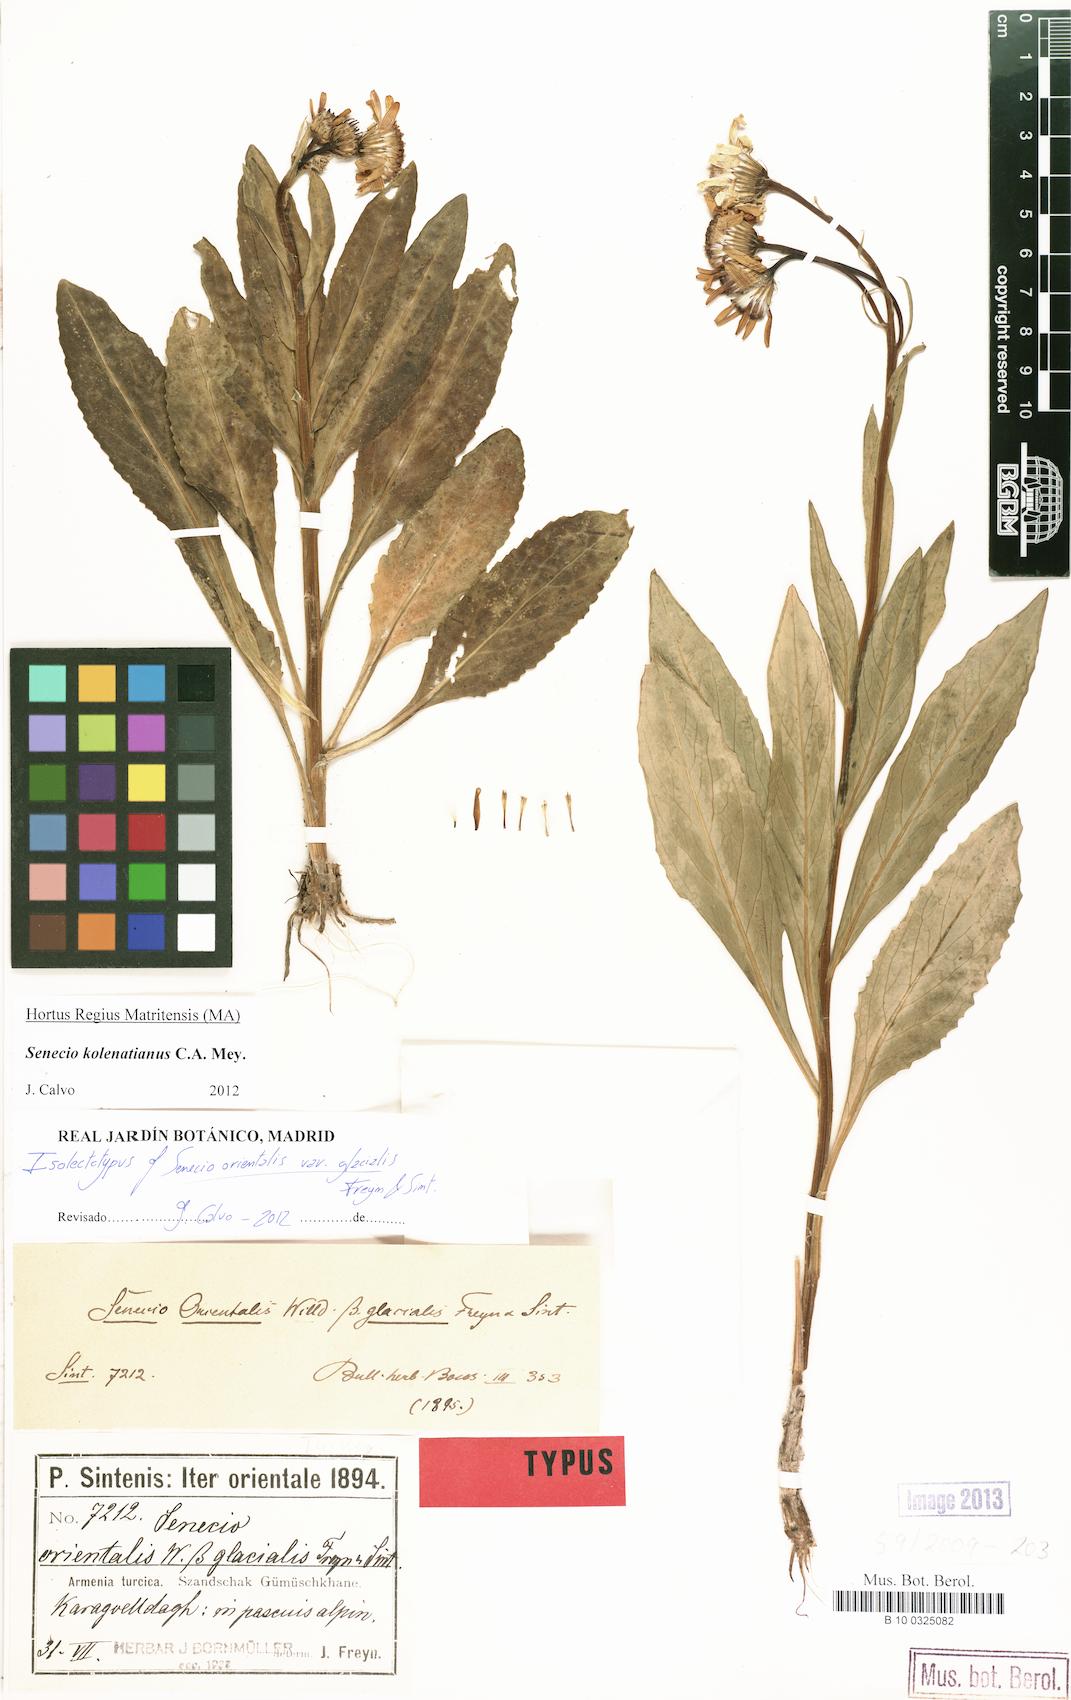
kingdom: Plantae
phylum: Tracheophyta
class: Magnoliopsida
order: Asterales
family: Asteraceae
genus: Senecio
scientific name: Senecio kolenatianus
